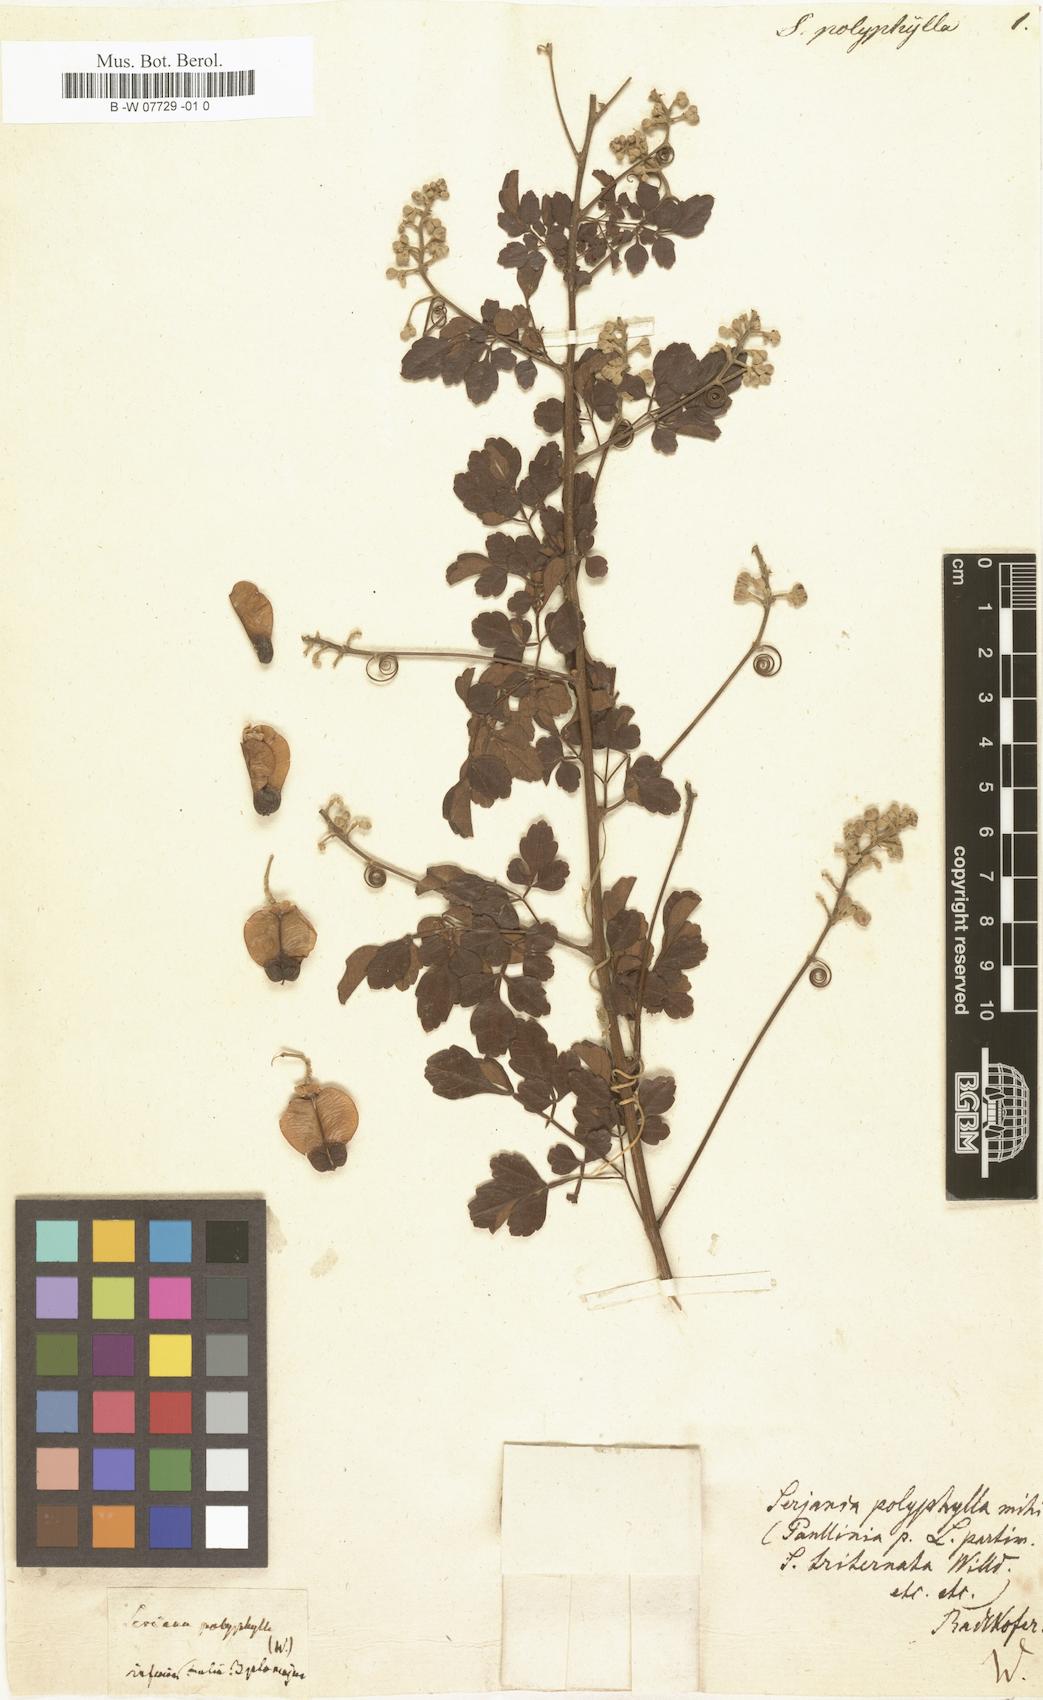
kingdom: Plantae
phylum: Tracheophyta
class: Magnoliopsida
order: Sapindales
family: Sapindaceae
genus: Serjania
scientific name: Serjania polyphylla
